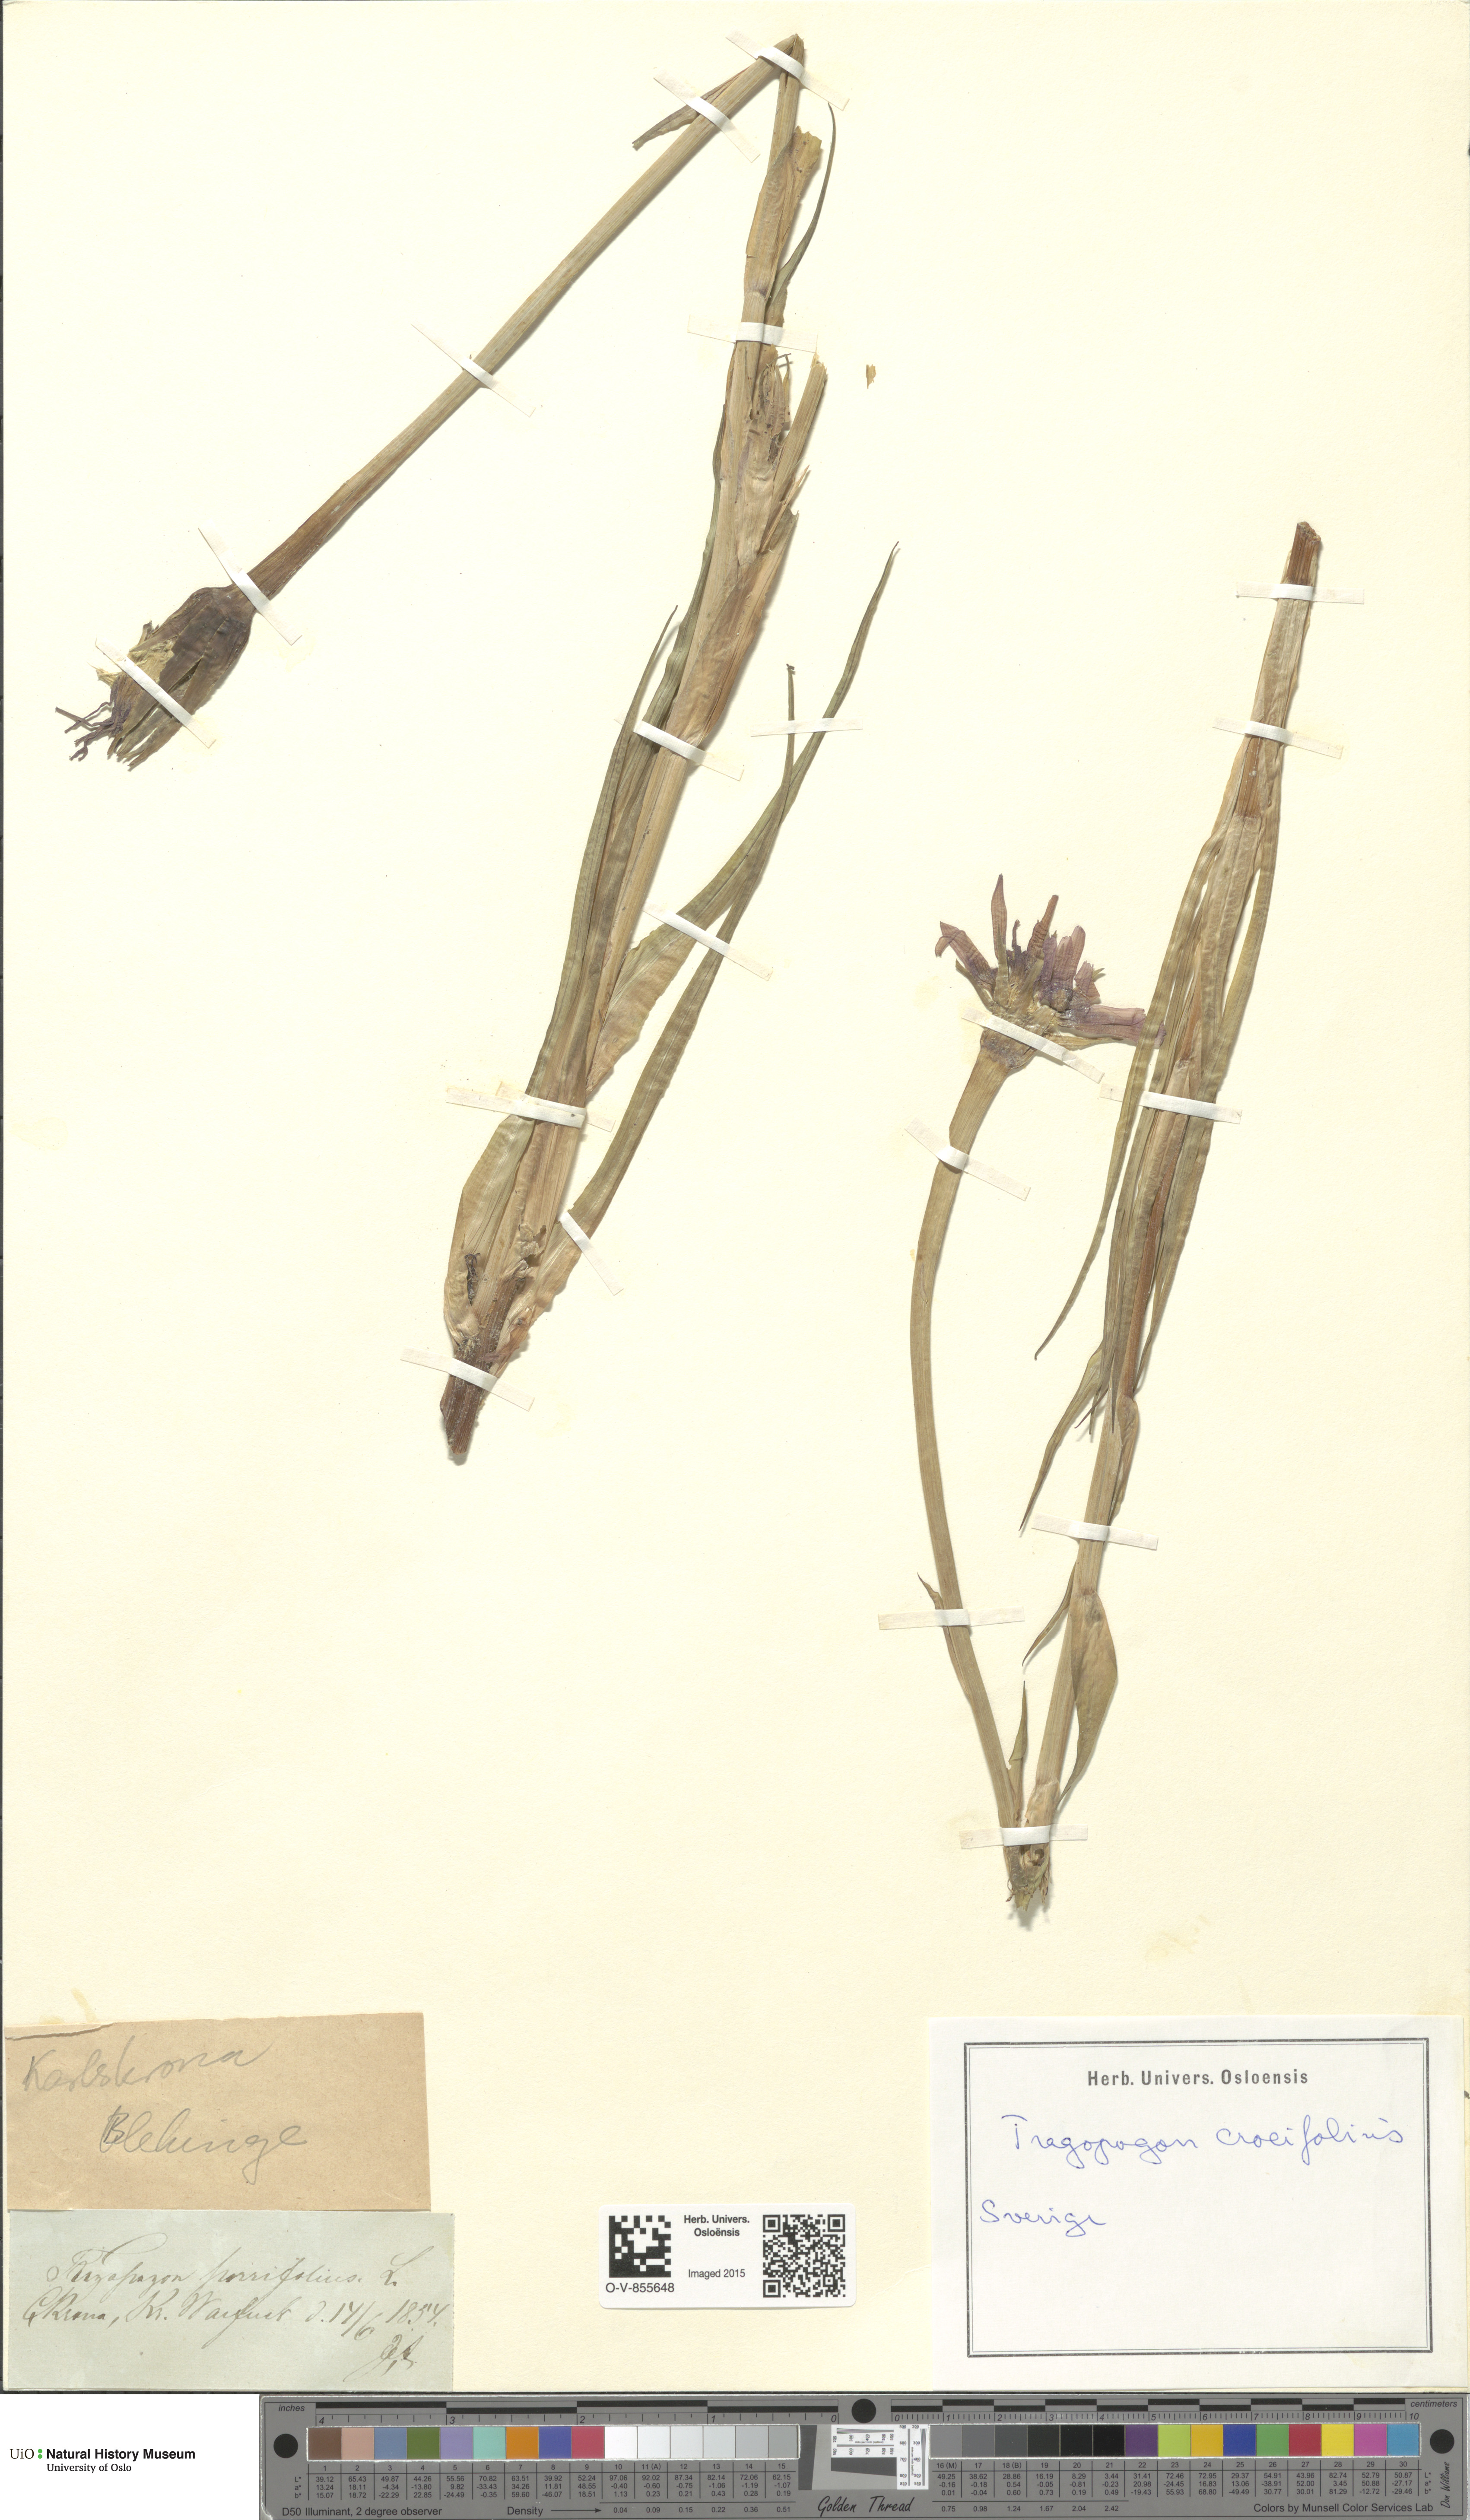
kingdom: Plantae
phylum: Tracheophyta
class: Magnoliopsida
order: Asterales
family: Asteraceae
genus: Tragopogon
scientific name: Tragopogon crocifolius
